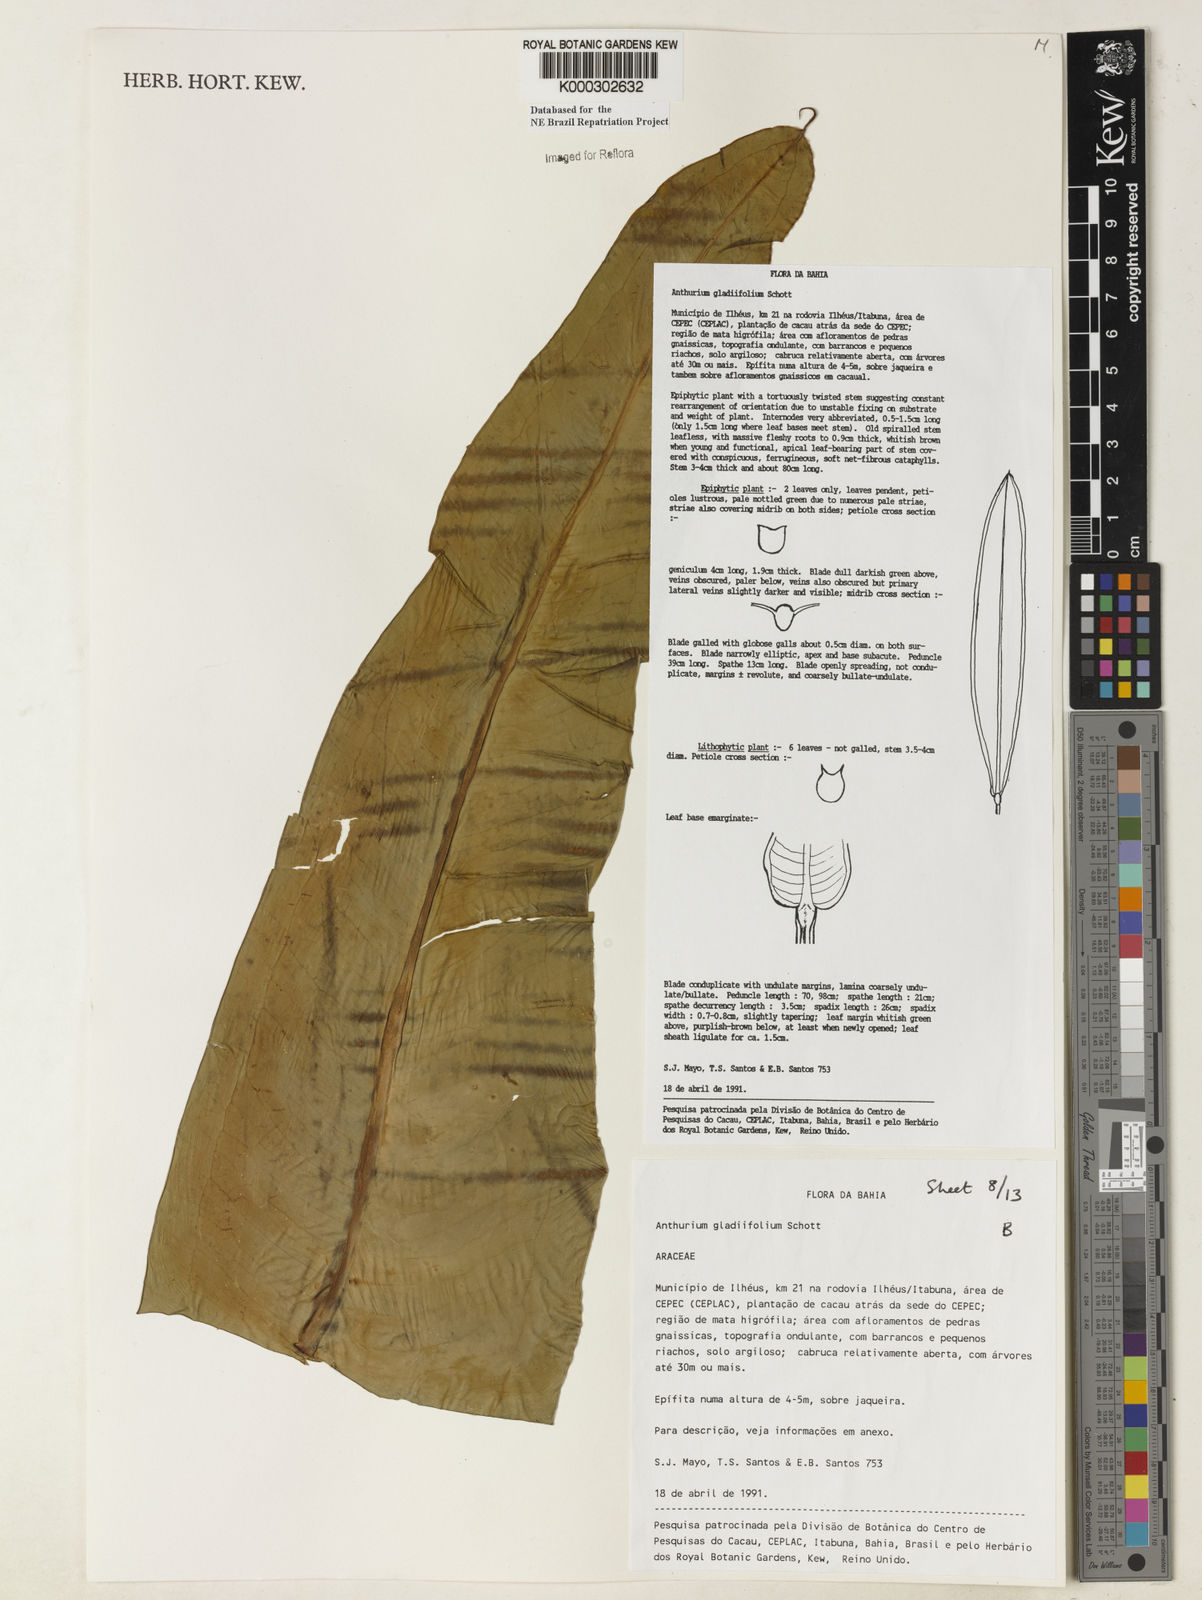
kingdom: Plantae
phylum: Tracheophyta
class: Liliopsida
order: Alismatales
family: Araceae
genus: Anthurium
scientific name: Anthurium gladiifolium
